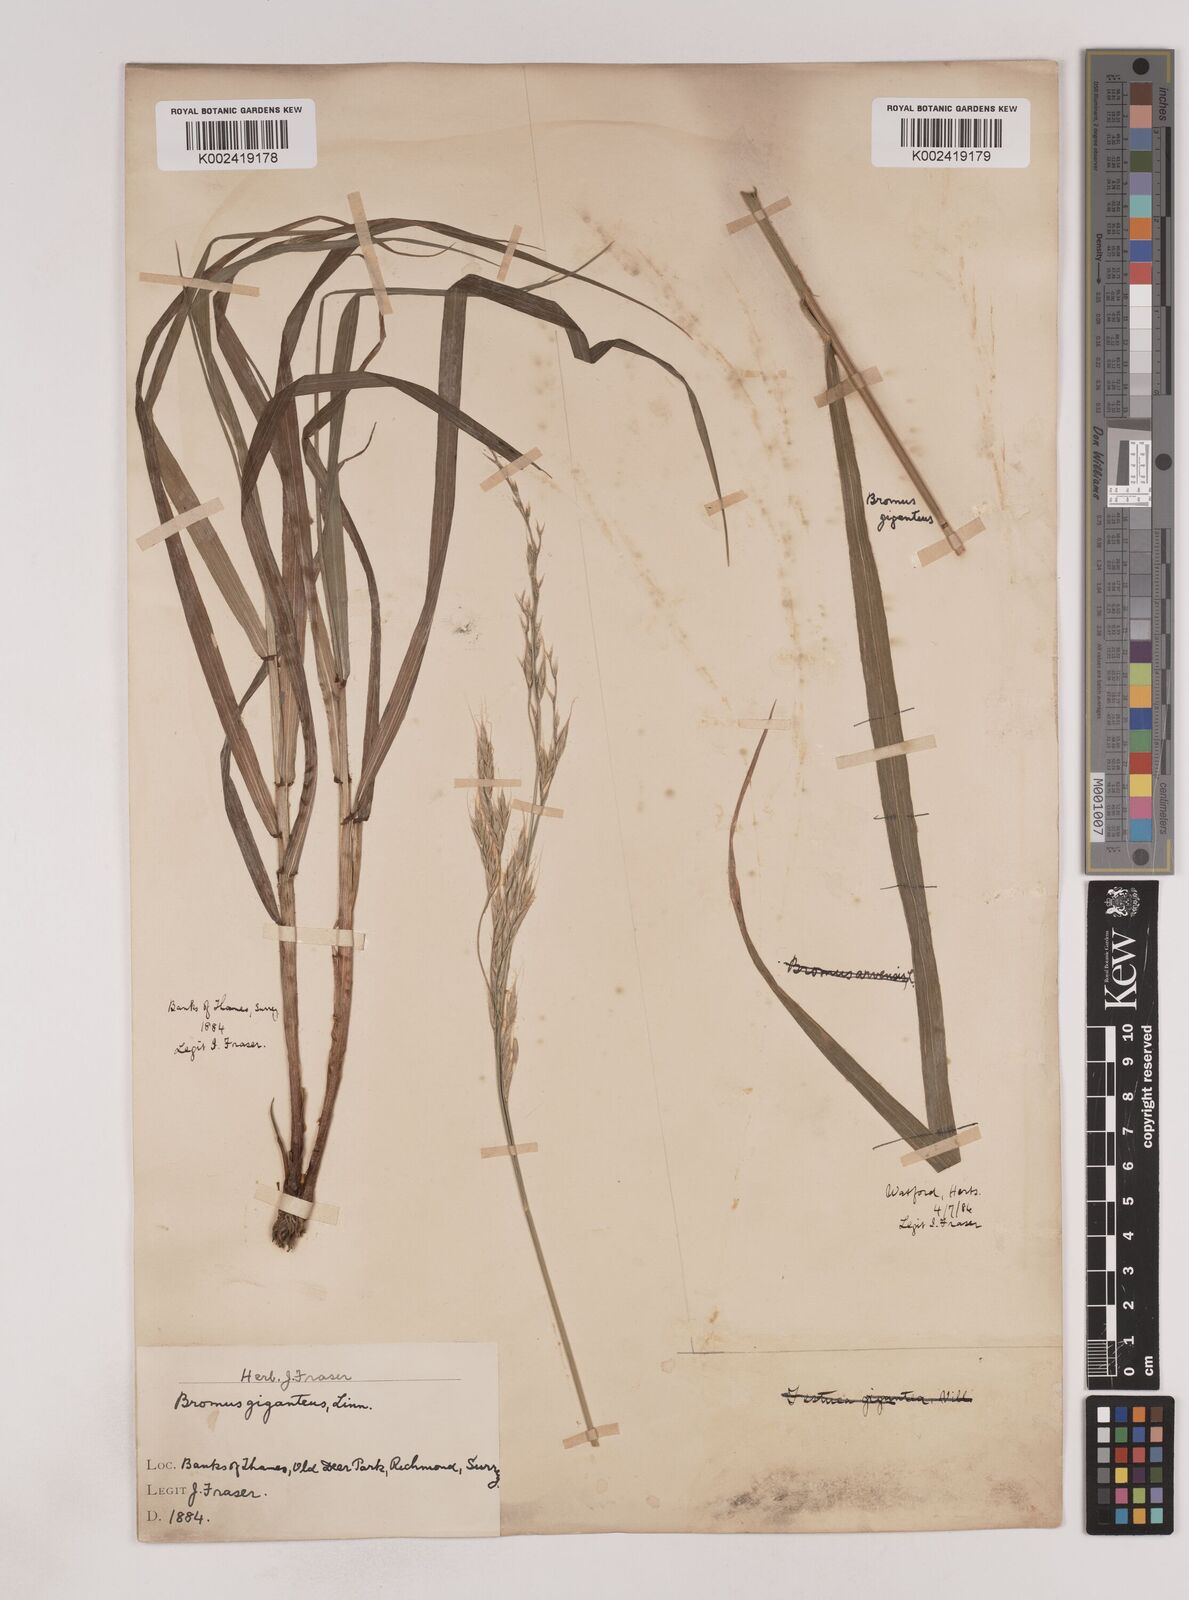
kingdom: Plantae
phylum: Tracheophyta
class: Liliopsida
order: Poales
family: Poaceae
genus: Lolium
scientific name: Lolium giganteum
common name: Giant fescue
